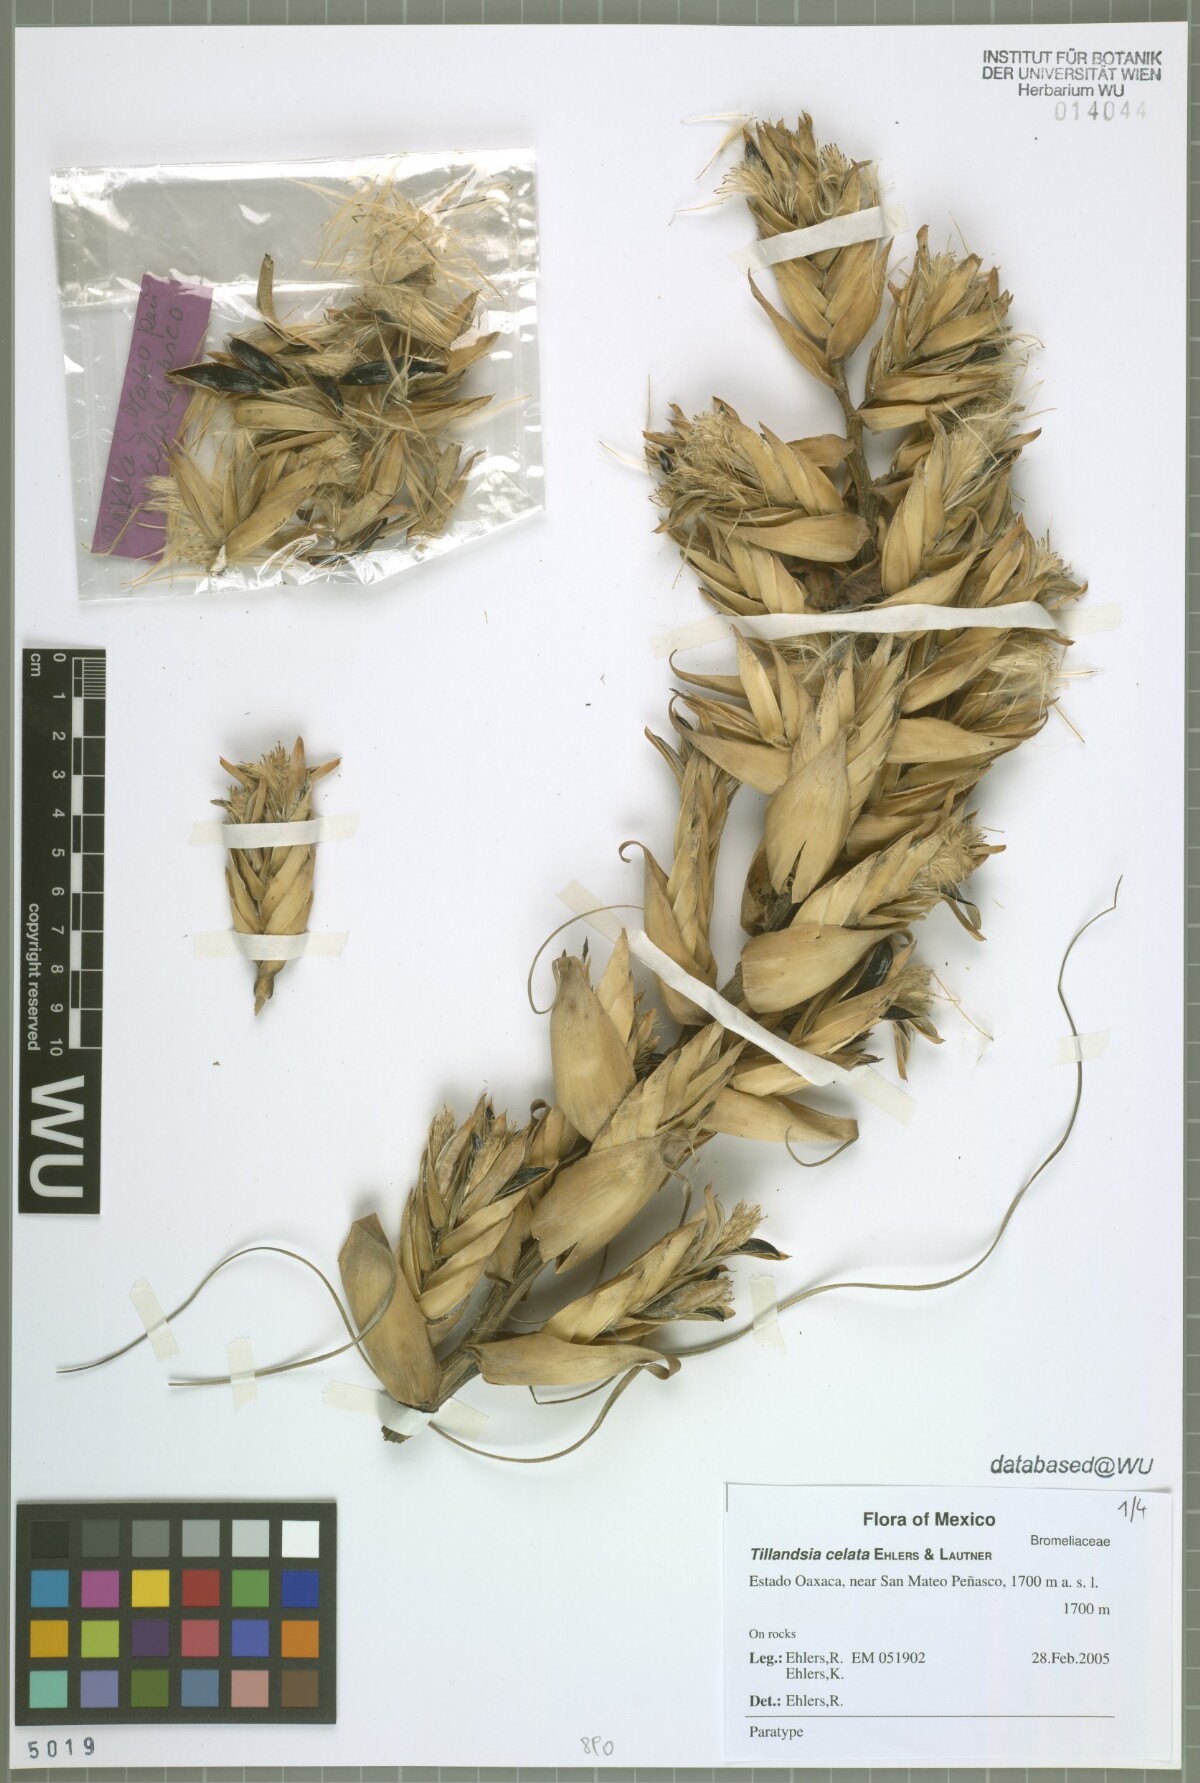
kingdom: Plantae
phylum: Tracheophyta
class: Liliopsida
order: Poales
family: Bromeliaceae
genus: Tillandsia
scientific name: Tillandsia celata
